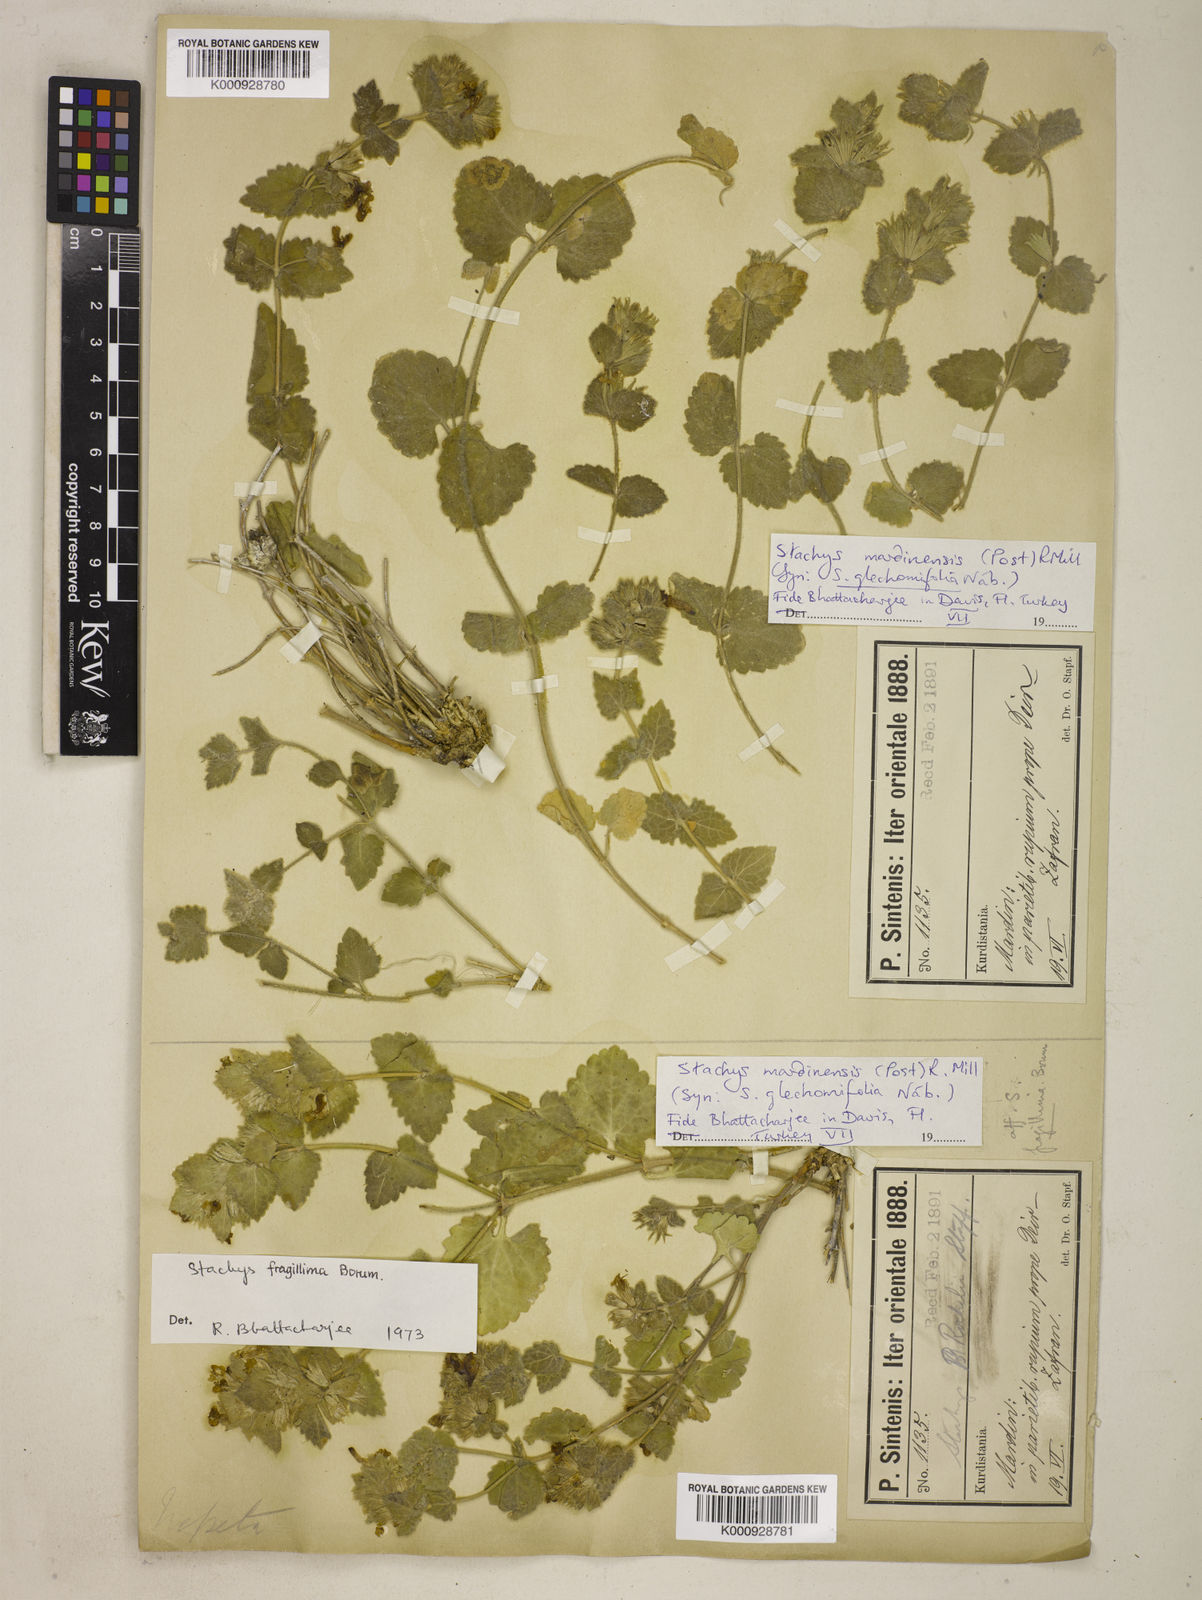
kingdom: Plantae
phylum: Tracheophyta
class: Magnoliopsida
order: Lamiales
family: Lamiaceae
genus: Stachys
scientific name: Stachys mardinensis
